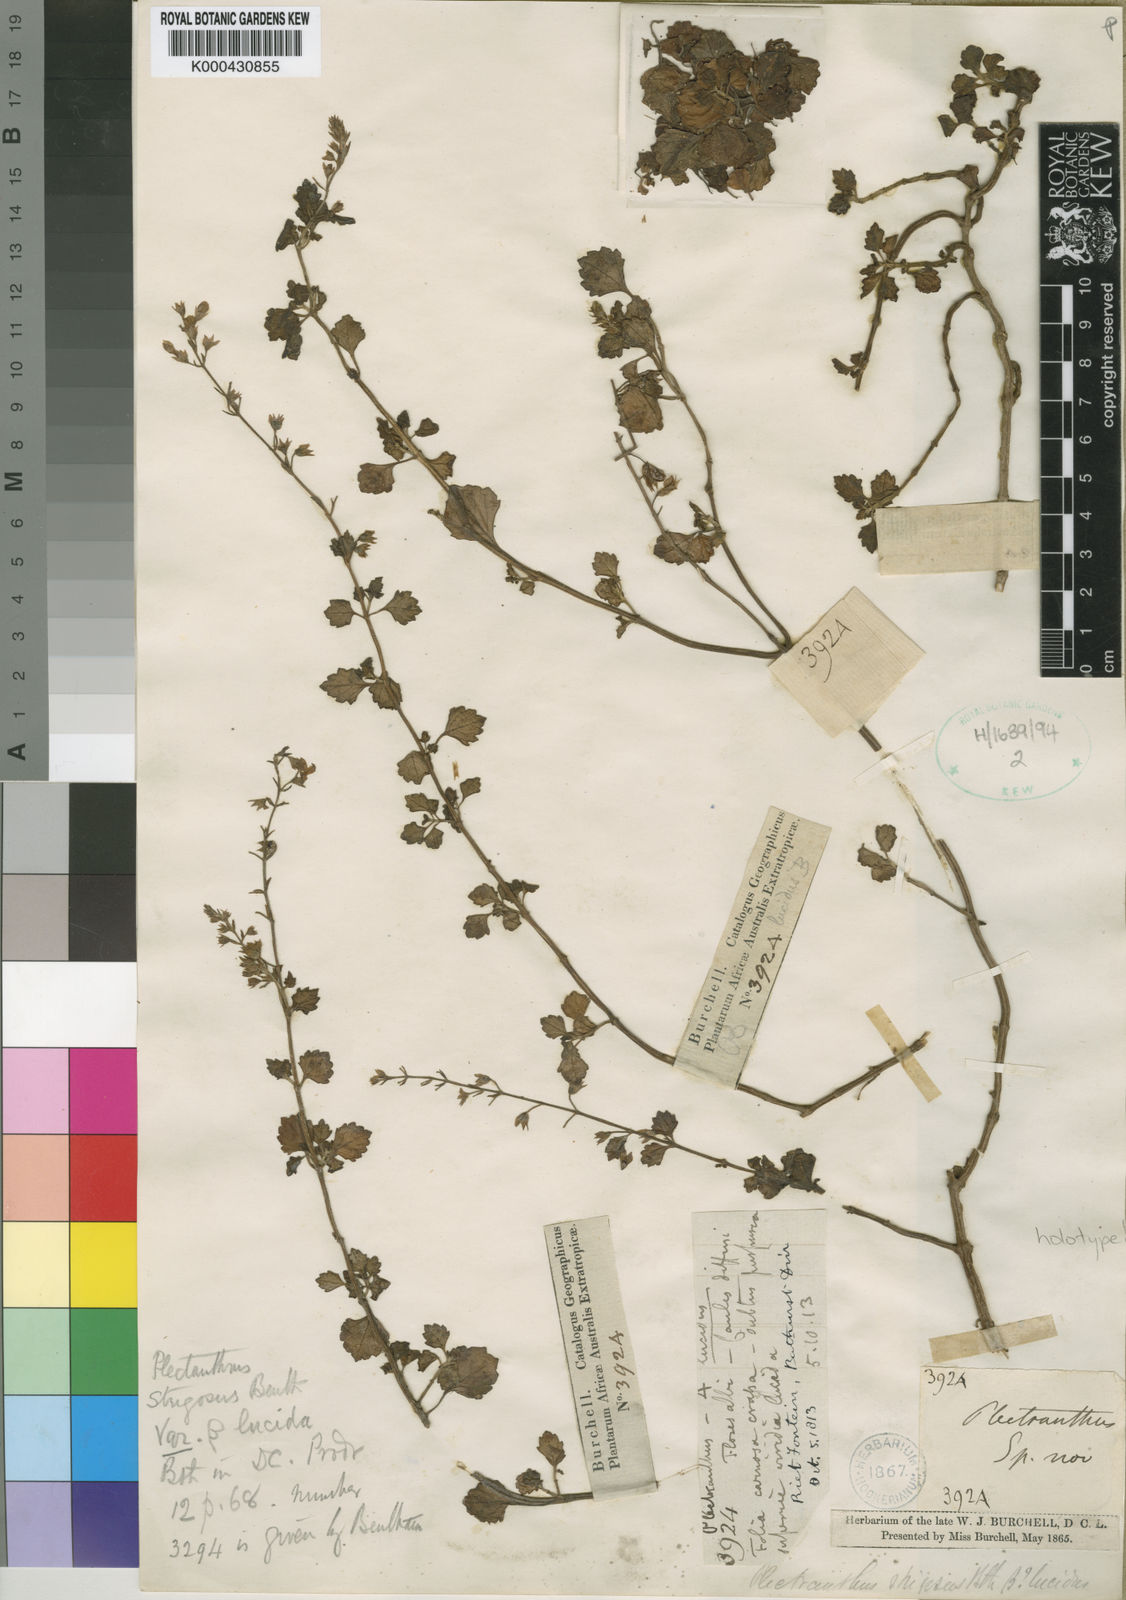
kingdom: Plantae
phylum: Tracheophyta
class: Magnoliopsida
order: Lamiales
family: Lamiaceae
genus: Plectranthus
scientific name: Plectranthus
